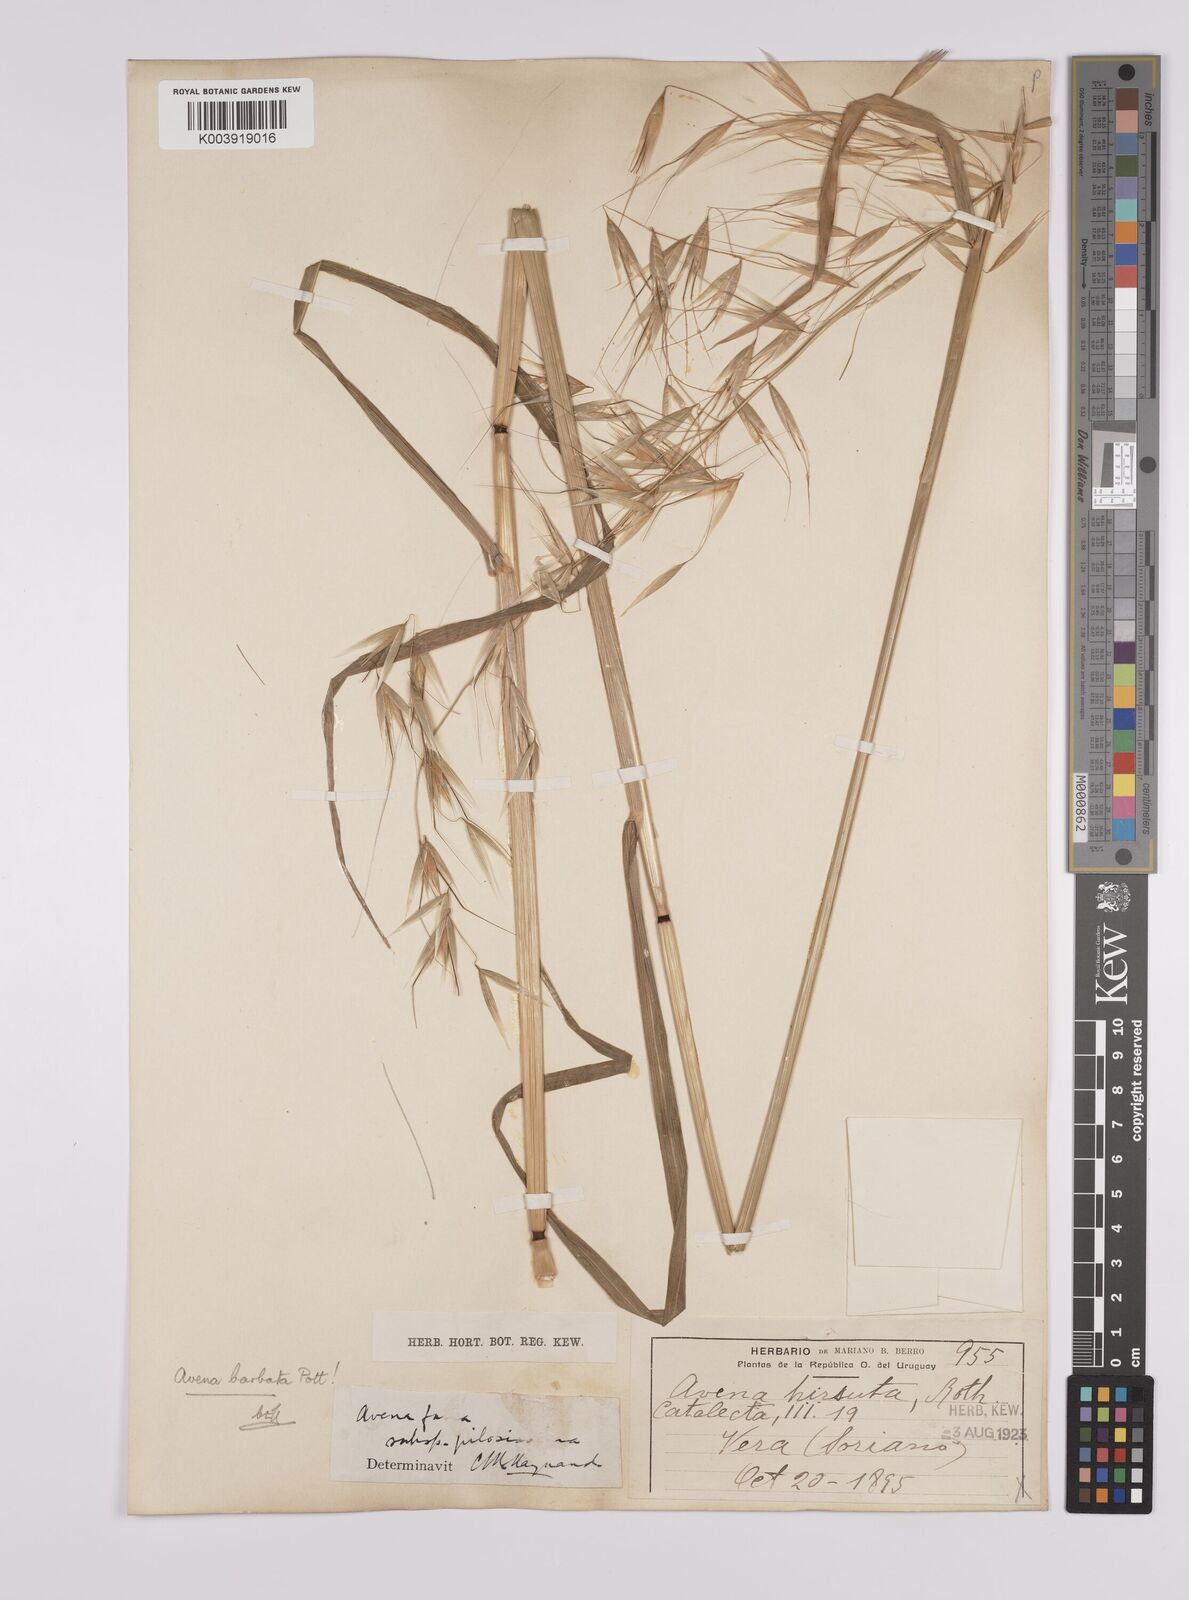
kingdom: Plantae
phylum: Tracheophyta
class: Liliopsida
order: Poales
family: Poaceae
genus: Avena
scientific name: Avena barbata
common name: Slender oat
